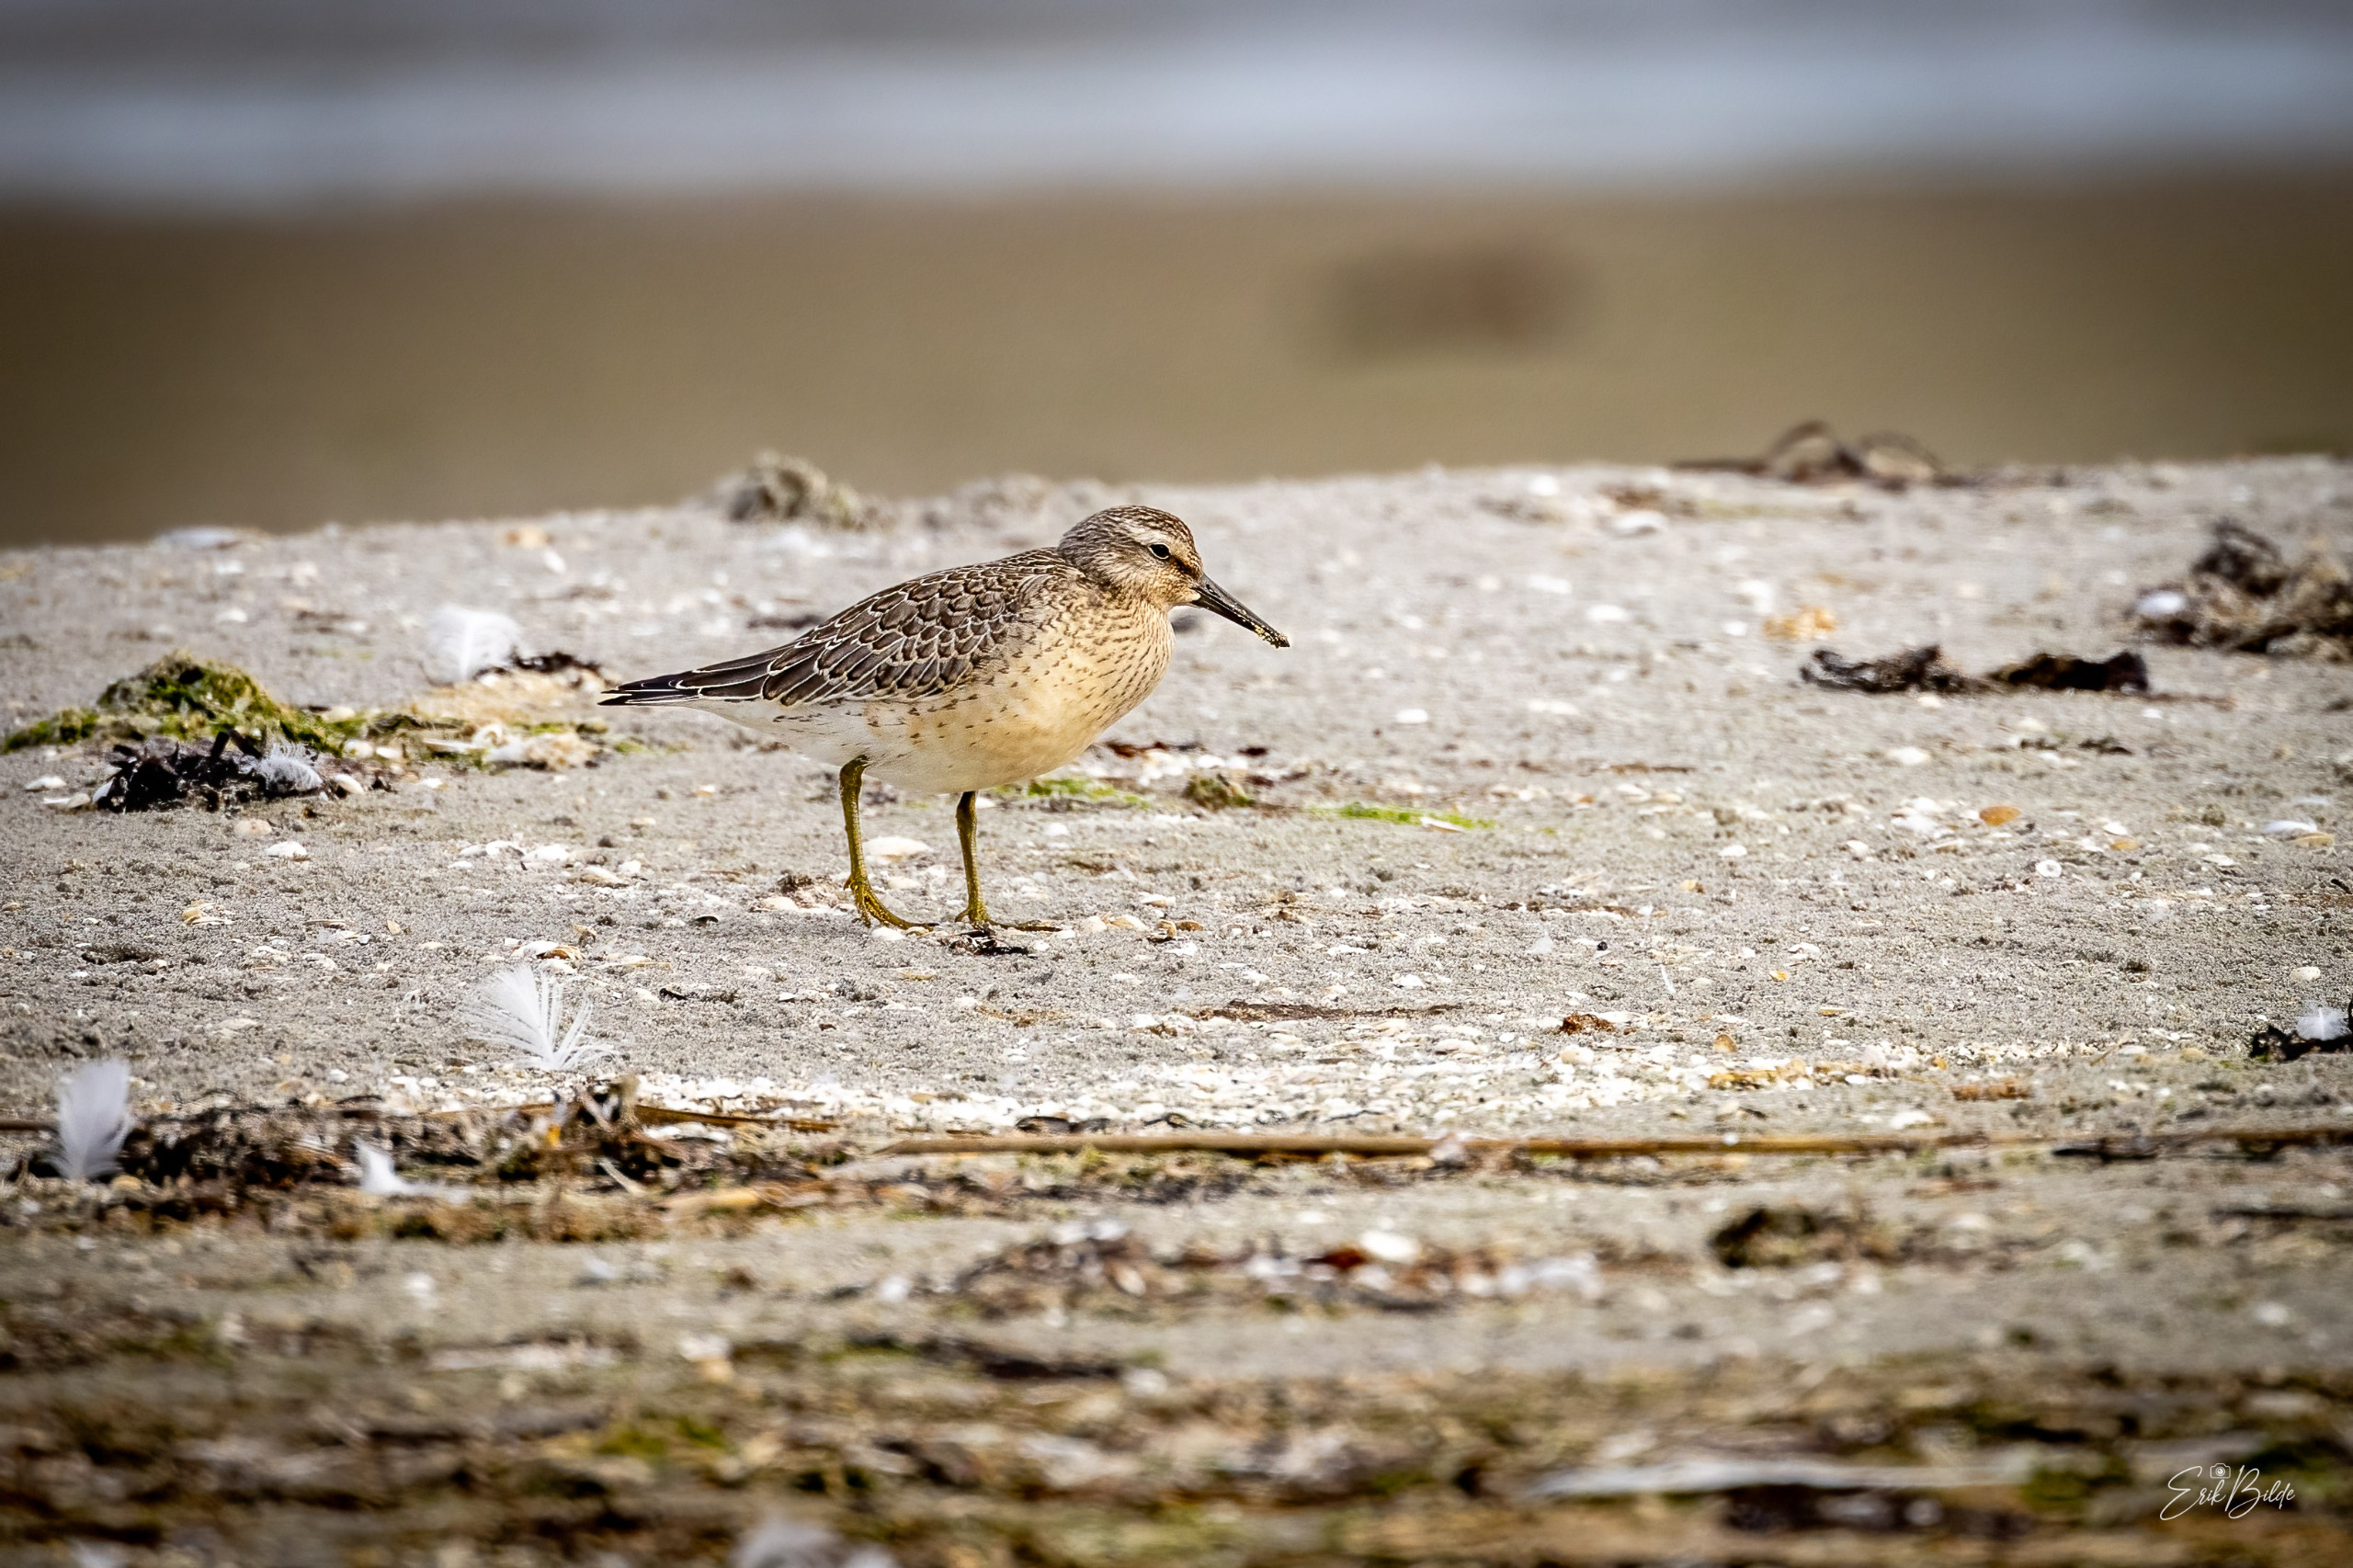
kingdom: Animalia
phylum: Chordata
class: Aves
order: Charadriiformes
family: Scolopacidae
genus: Calidris
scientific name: Calidris canutus
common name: Islandsk ryle
